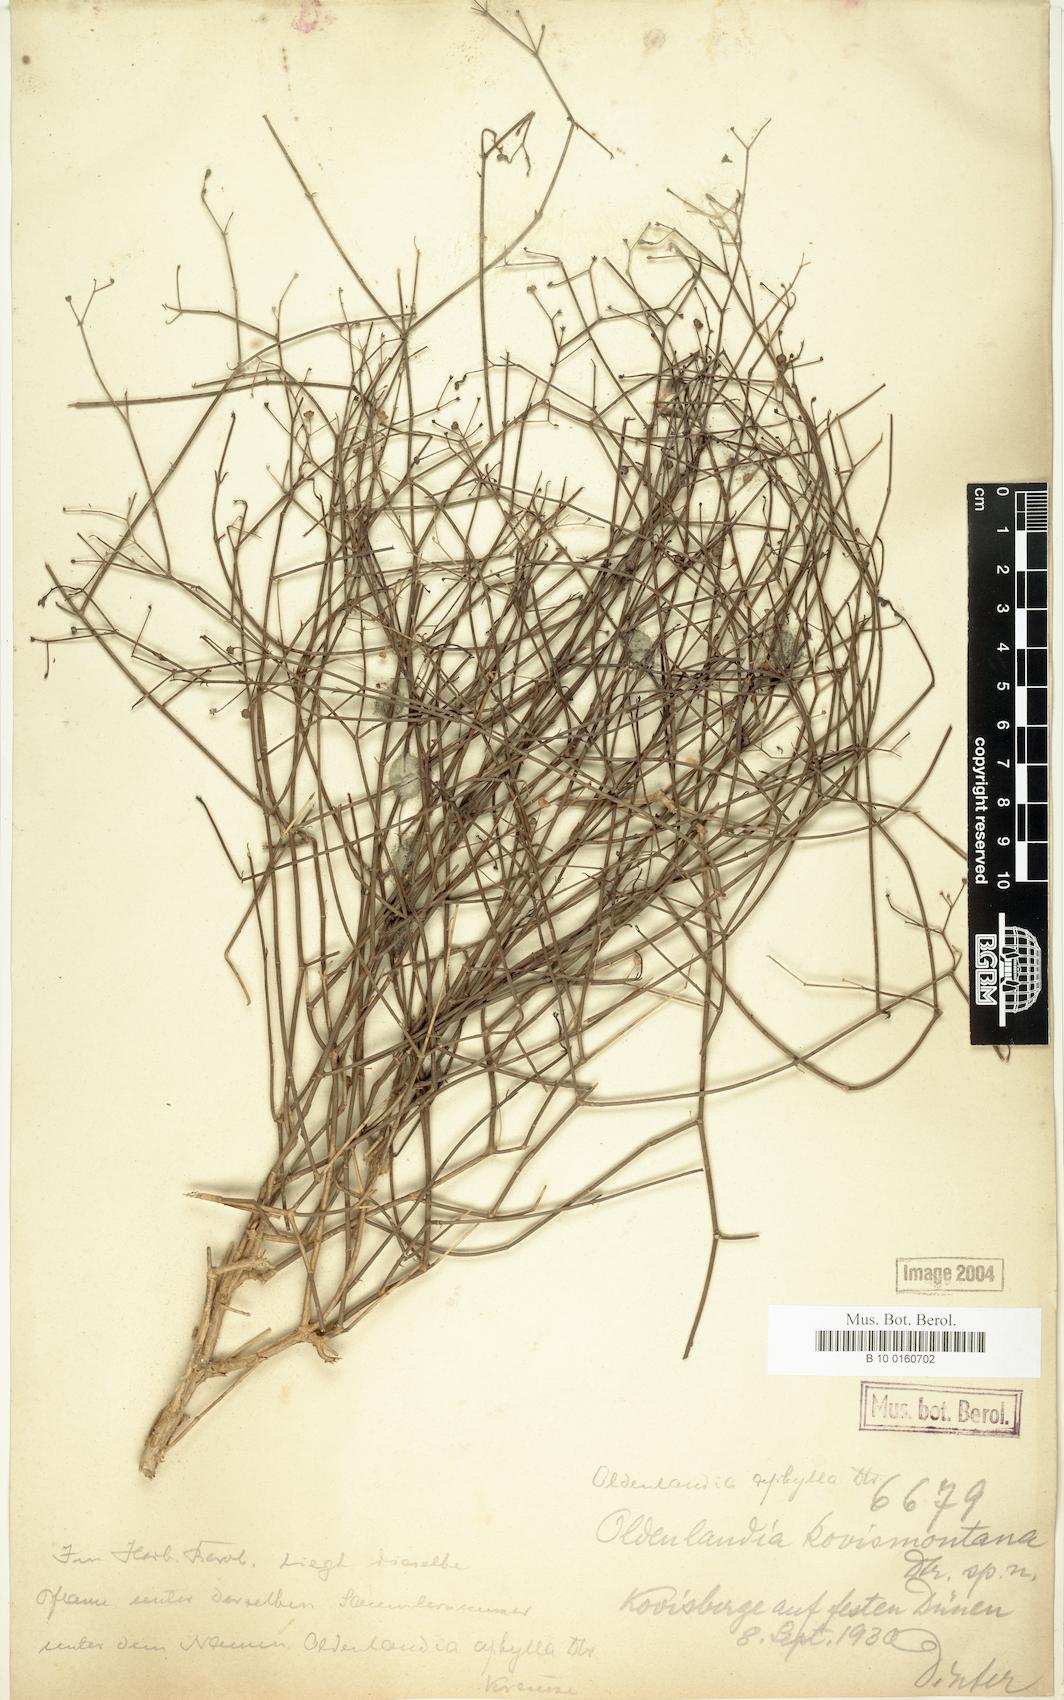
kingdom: Plantae
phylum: Tracheophyta
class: Magnoliopsida
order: Gentianales
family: Rubiaceae
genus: Oldenlandia
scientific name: Oldenlandia
